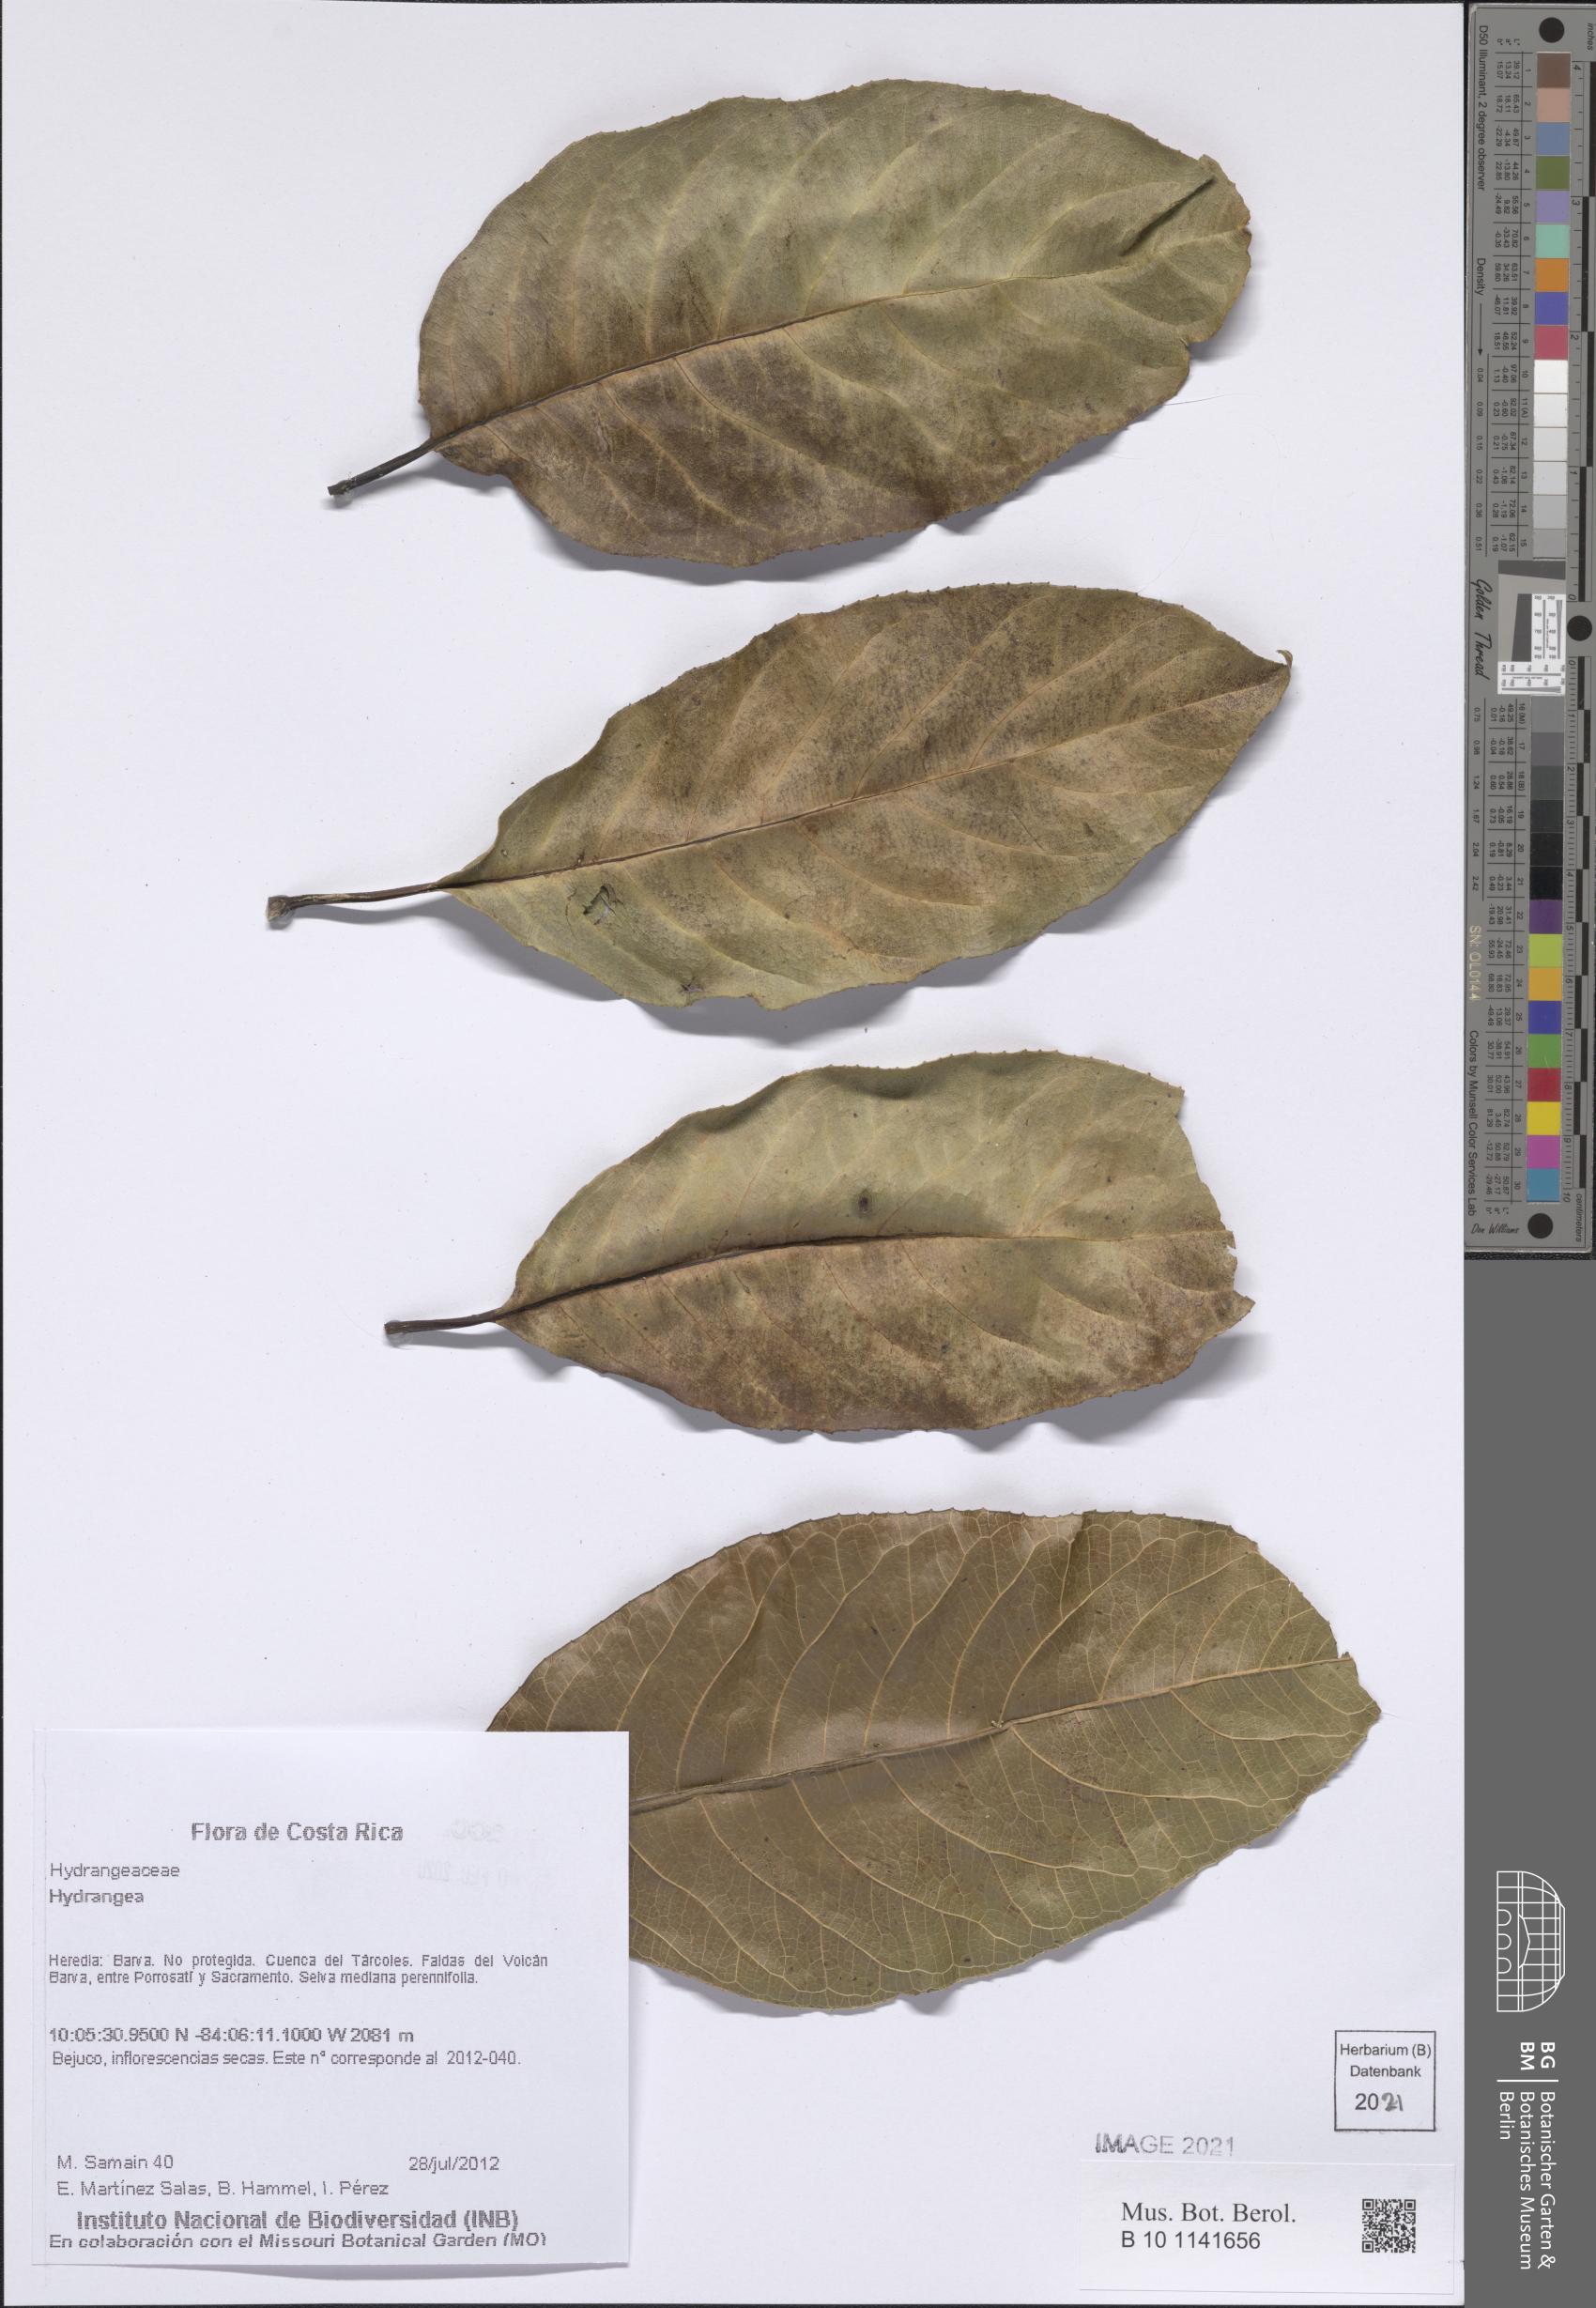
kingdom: Plantae
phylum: Tracheophyta
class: Magnoliopsida
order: Cornales
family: Hydrangeaceae
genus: Hydrangea
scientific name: Hydrangea
